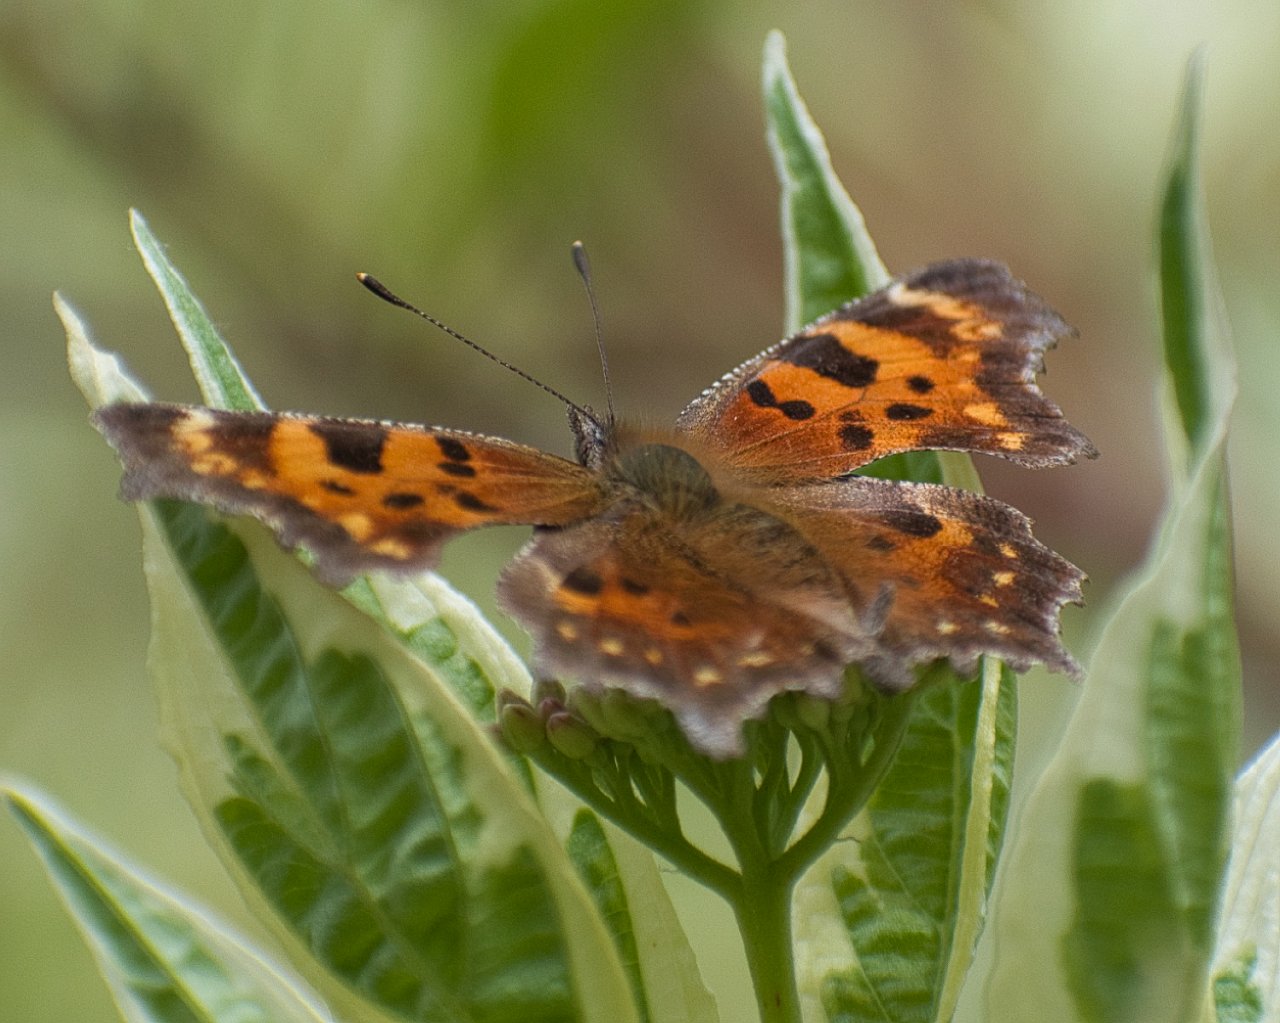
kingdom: Animalia
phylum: Arthropoda
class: Insecta
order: Lepidoptera
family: Nymphalidae
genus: Polygonia
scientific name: Polygonia faunus
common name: Green Comma
